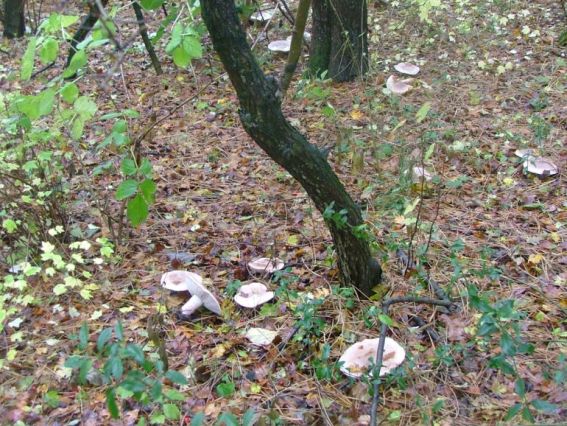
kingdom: Fungi
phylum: Basidiomycota
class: Agaricomycetes
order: Agaricales
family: Tricholomataceae
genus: Lepista
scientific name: Lepista personata
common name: bleg hekseringshat
